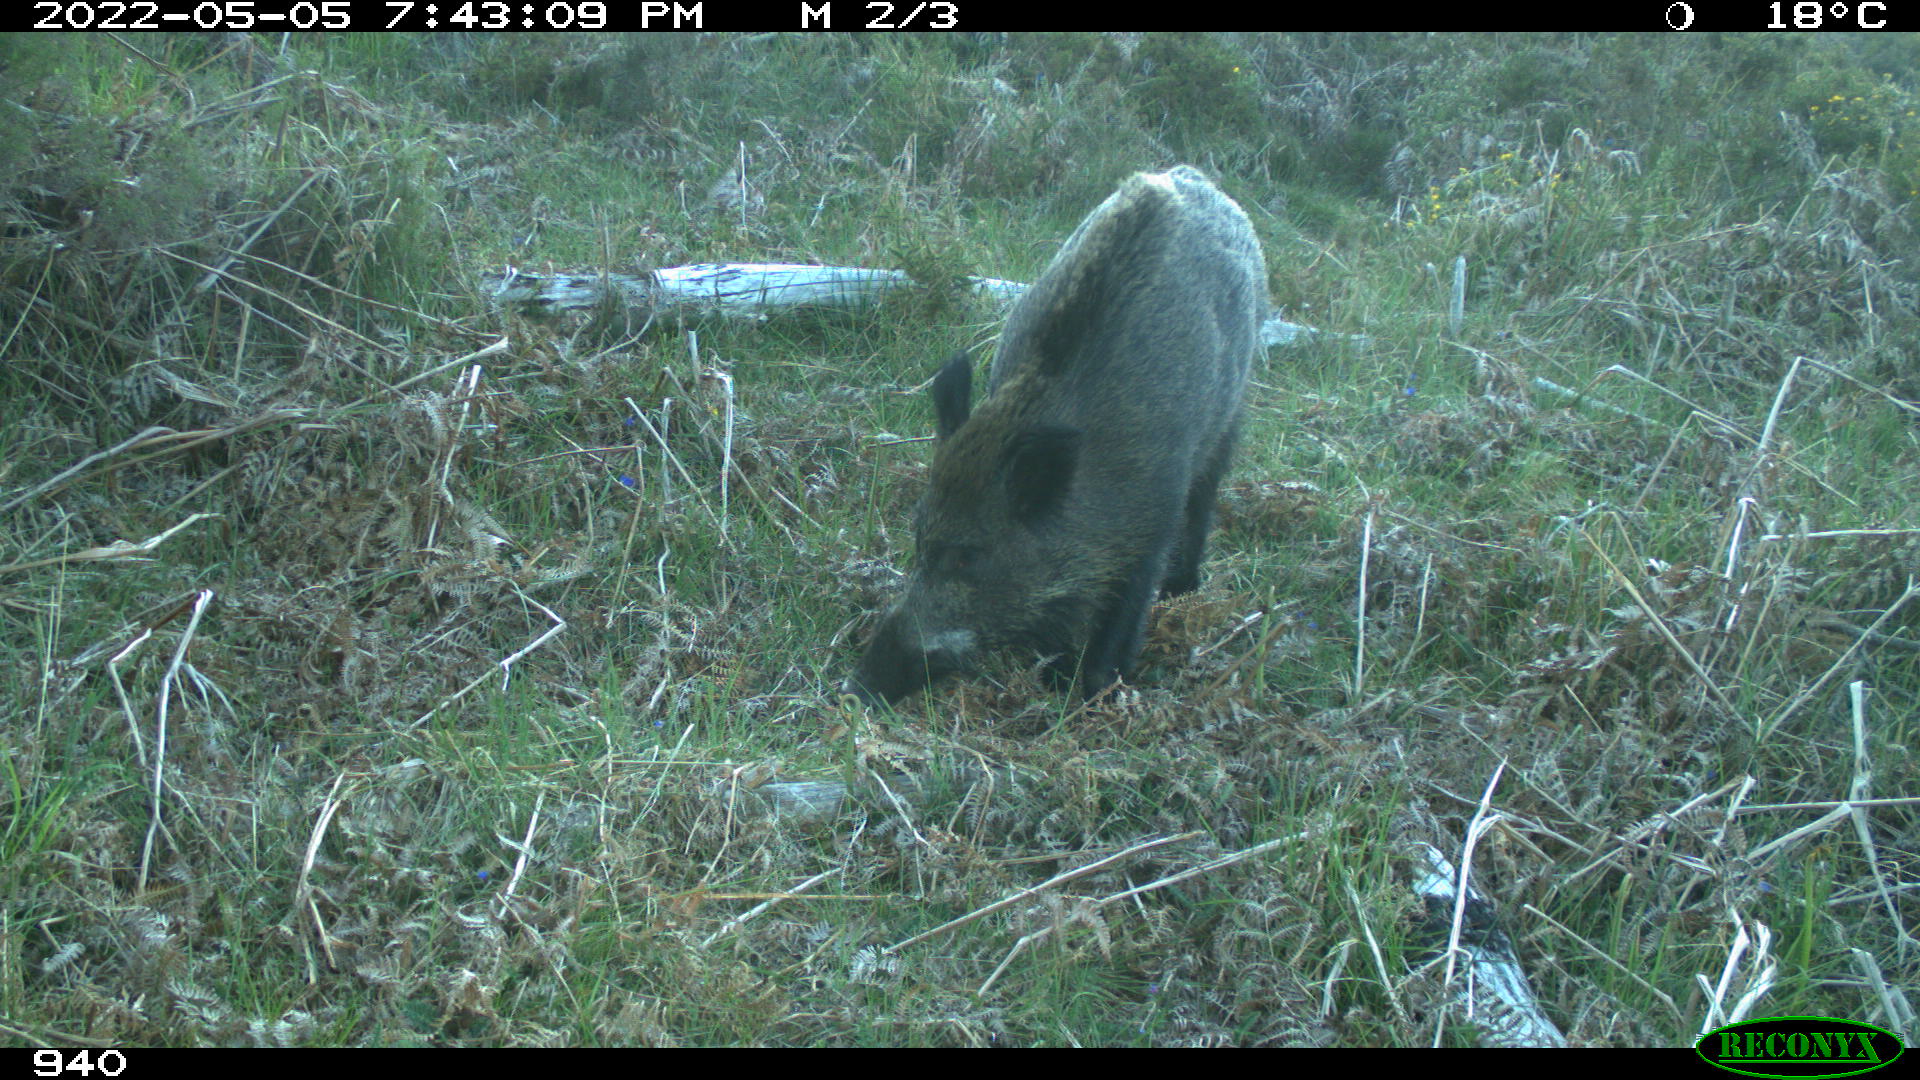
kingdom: Animalia
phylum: Chordata
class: Mammalia
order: Artiodactyla
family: Suidae
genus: Sus
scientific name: Sus scrofa
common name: Wild boar
